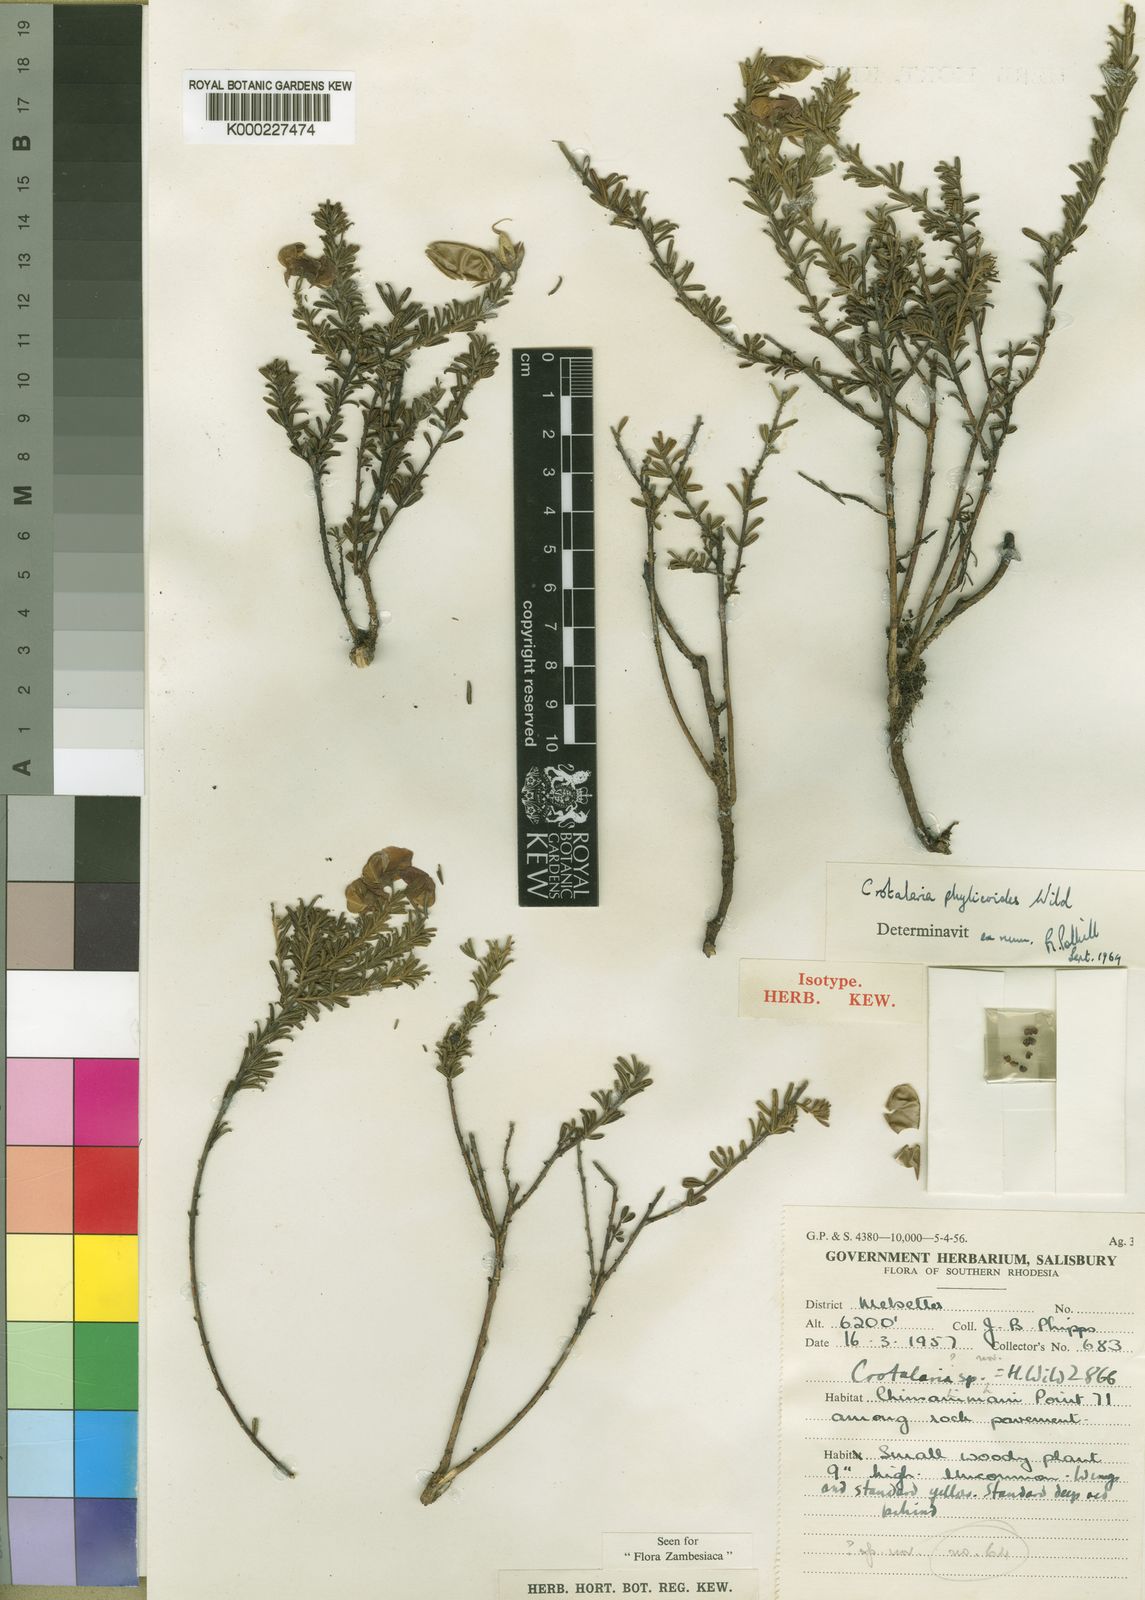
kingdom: Plantae
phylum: Tracheophyta
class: Magnoliopsida
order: Fabales
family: Fabaceae
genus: Crotalaria
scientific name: Crotalaria phylicoides
